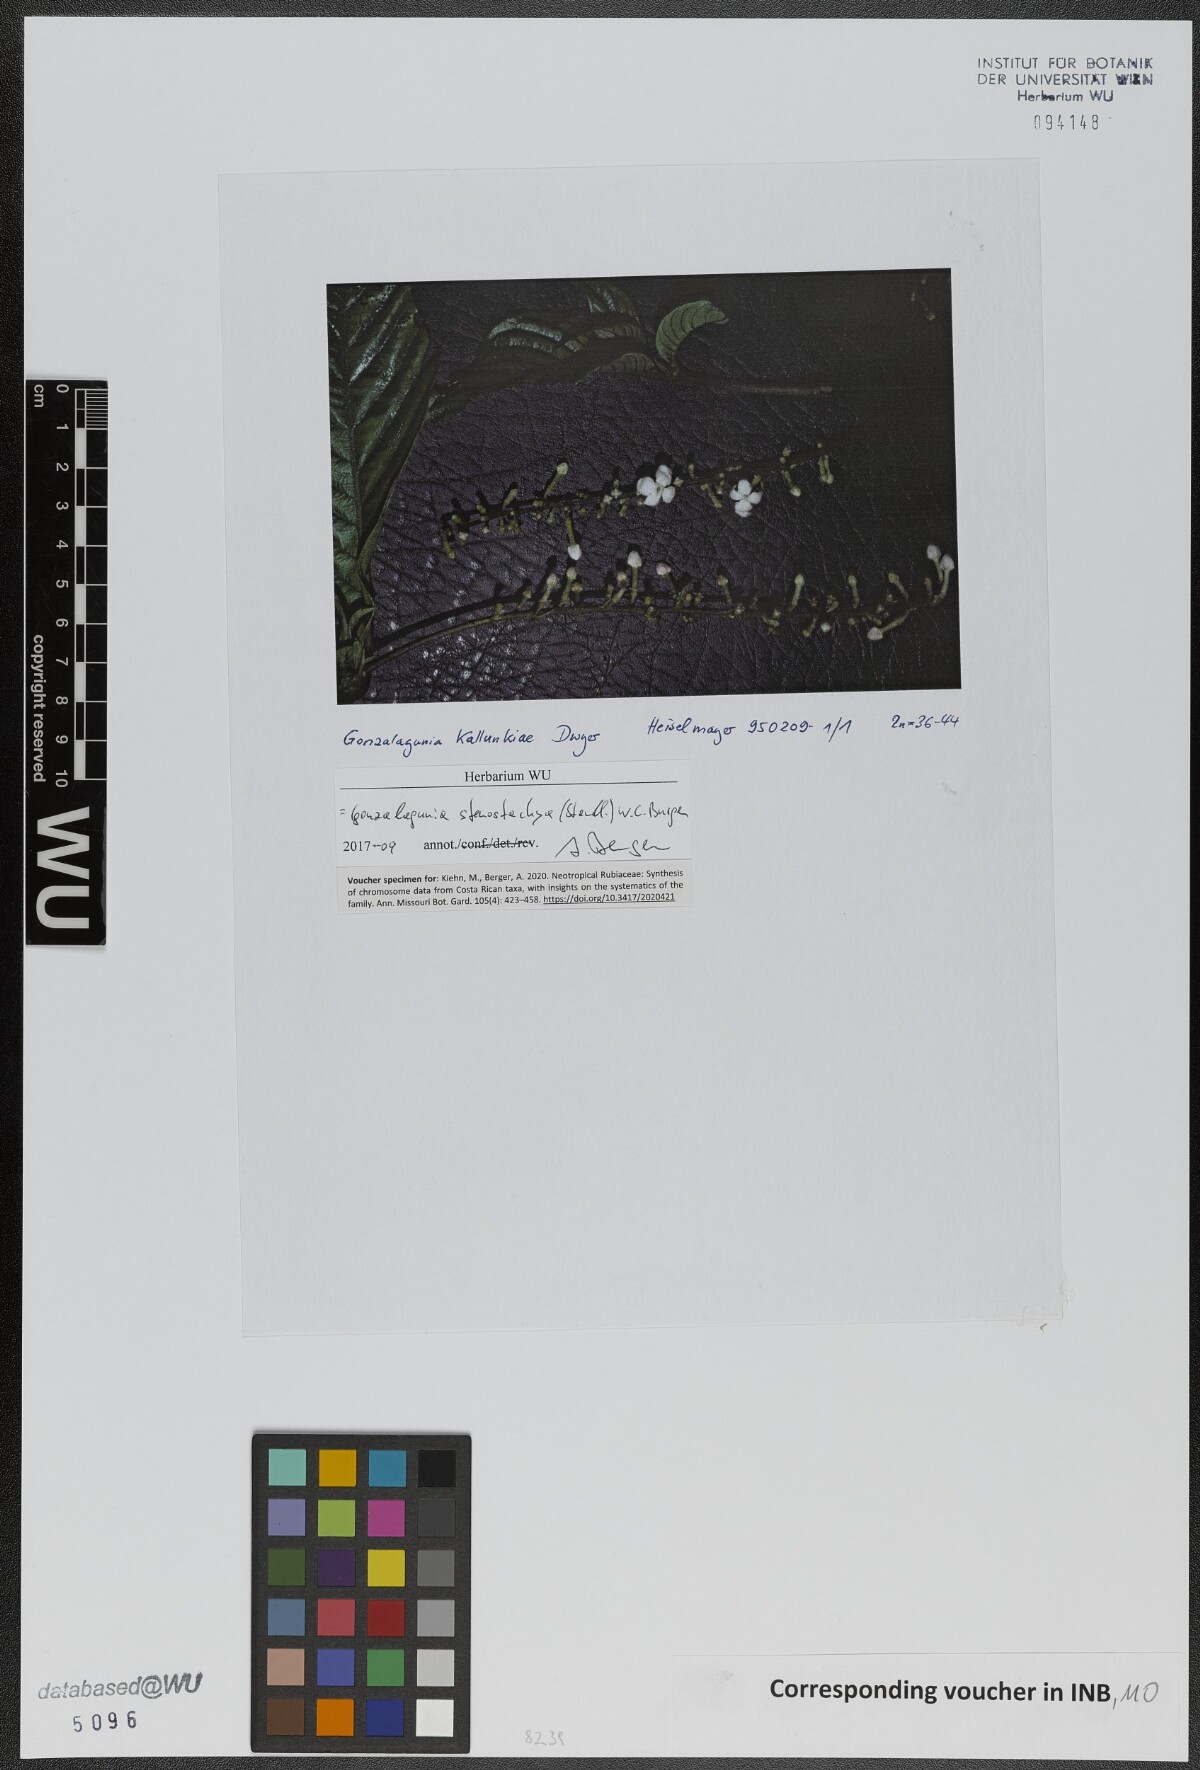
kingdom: Plantae
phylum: Tracheophyta
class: Magnoliopsida
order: Gentianales
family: Rubiaceae
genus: Gonzalagunia
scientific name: Gonzalagunia stenostachya
